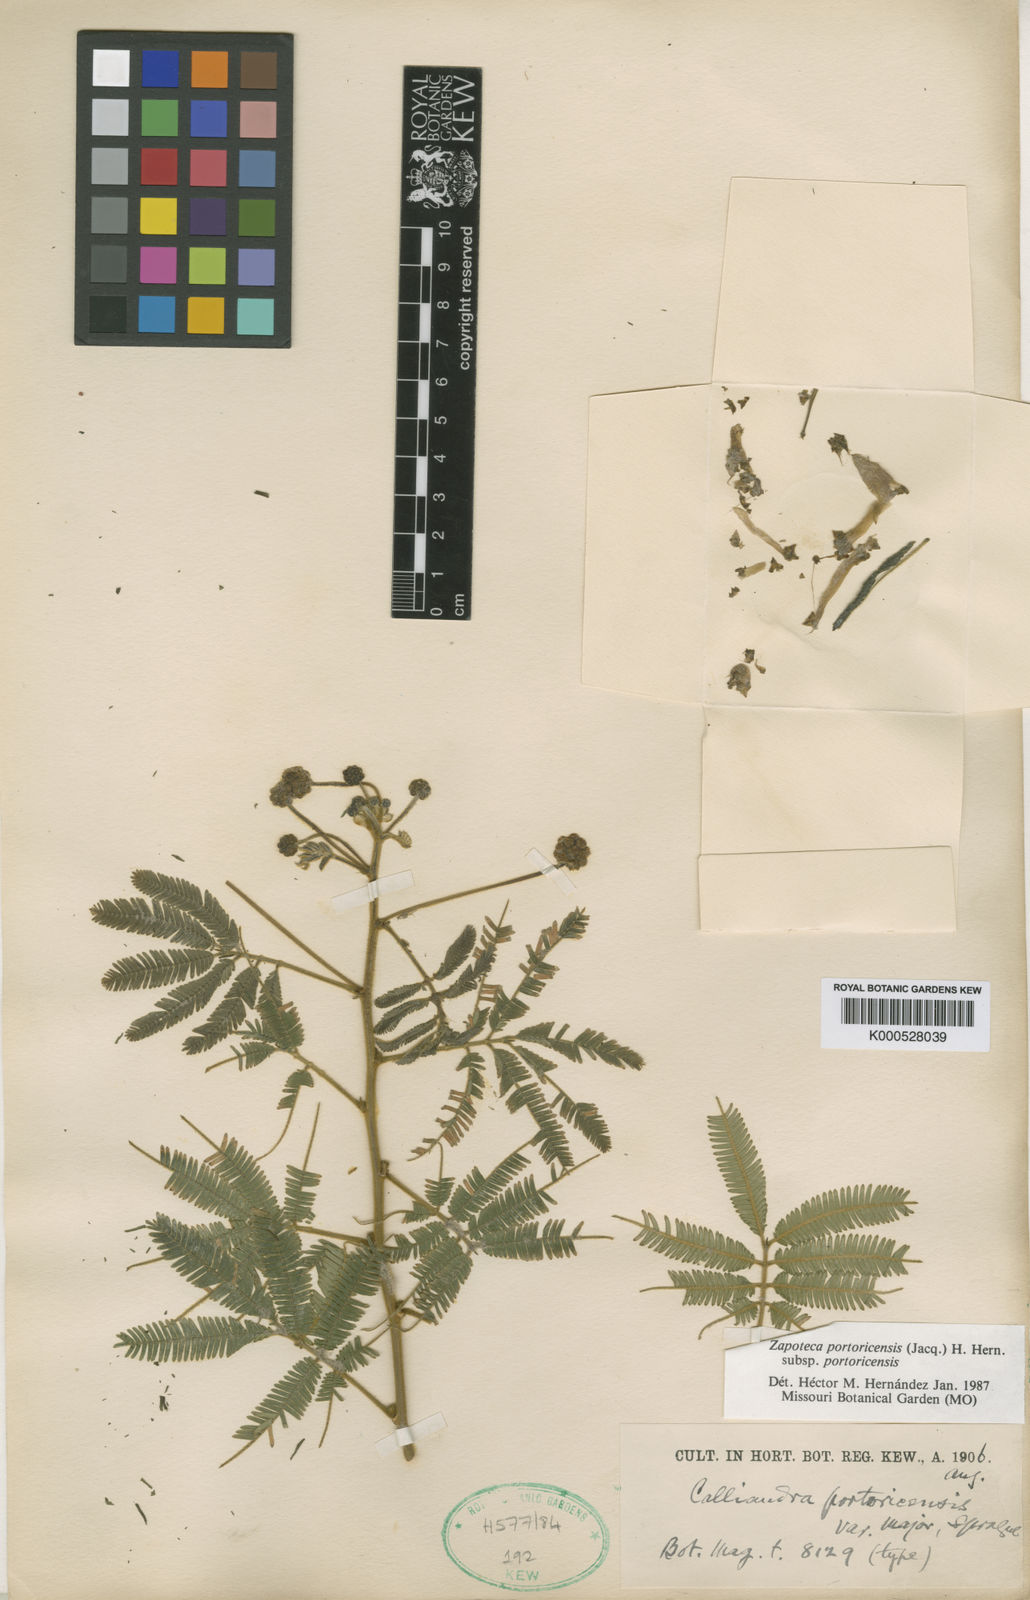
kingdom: Plantae
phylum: Tracheophyta
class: Magnoliopsida
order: Fabales
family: Fabaceae
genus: Zapoteca
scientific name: Zapoteca portoricensis
